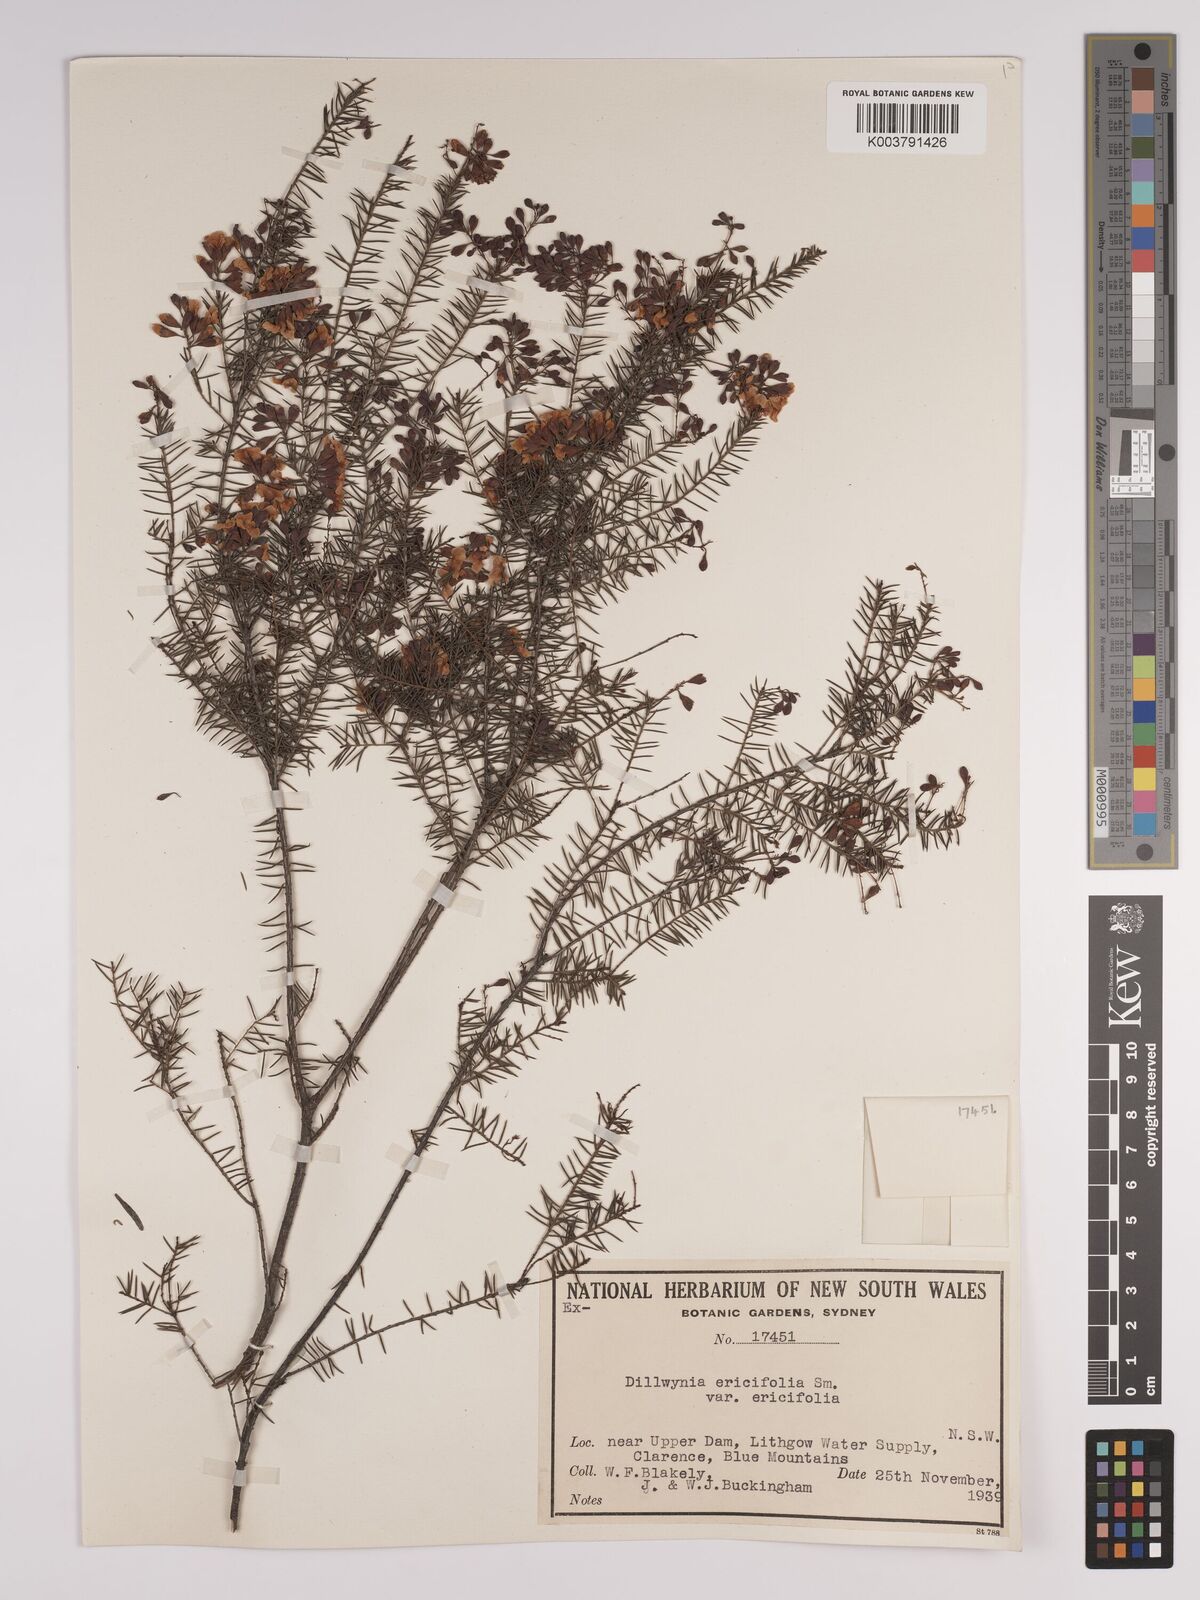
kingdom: Plantae
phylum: Tracheophyta
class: Magnoliopsida
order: Fabales
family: Fabaceae
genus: Dillwynia
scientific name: Dillwynia retorta
